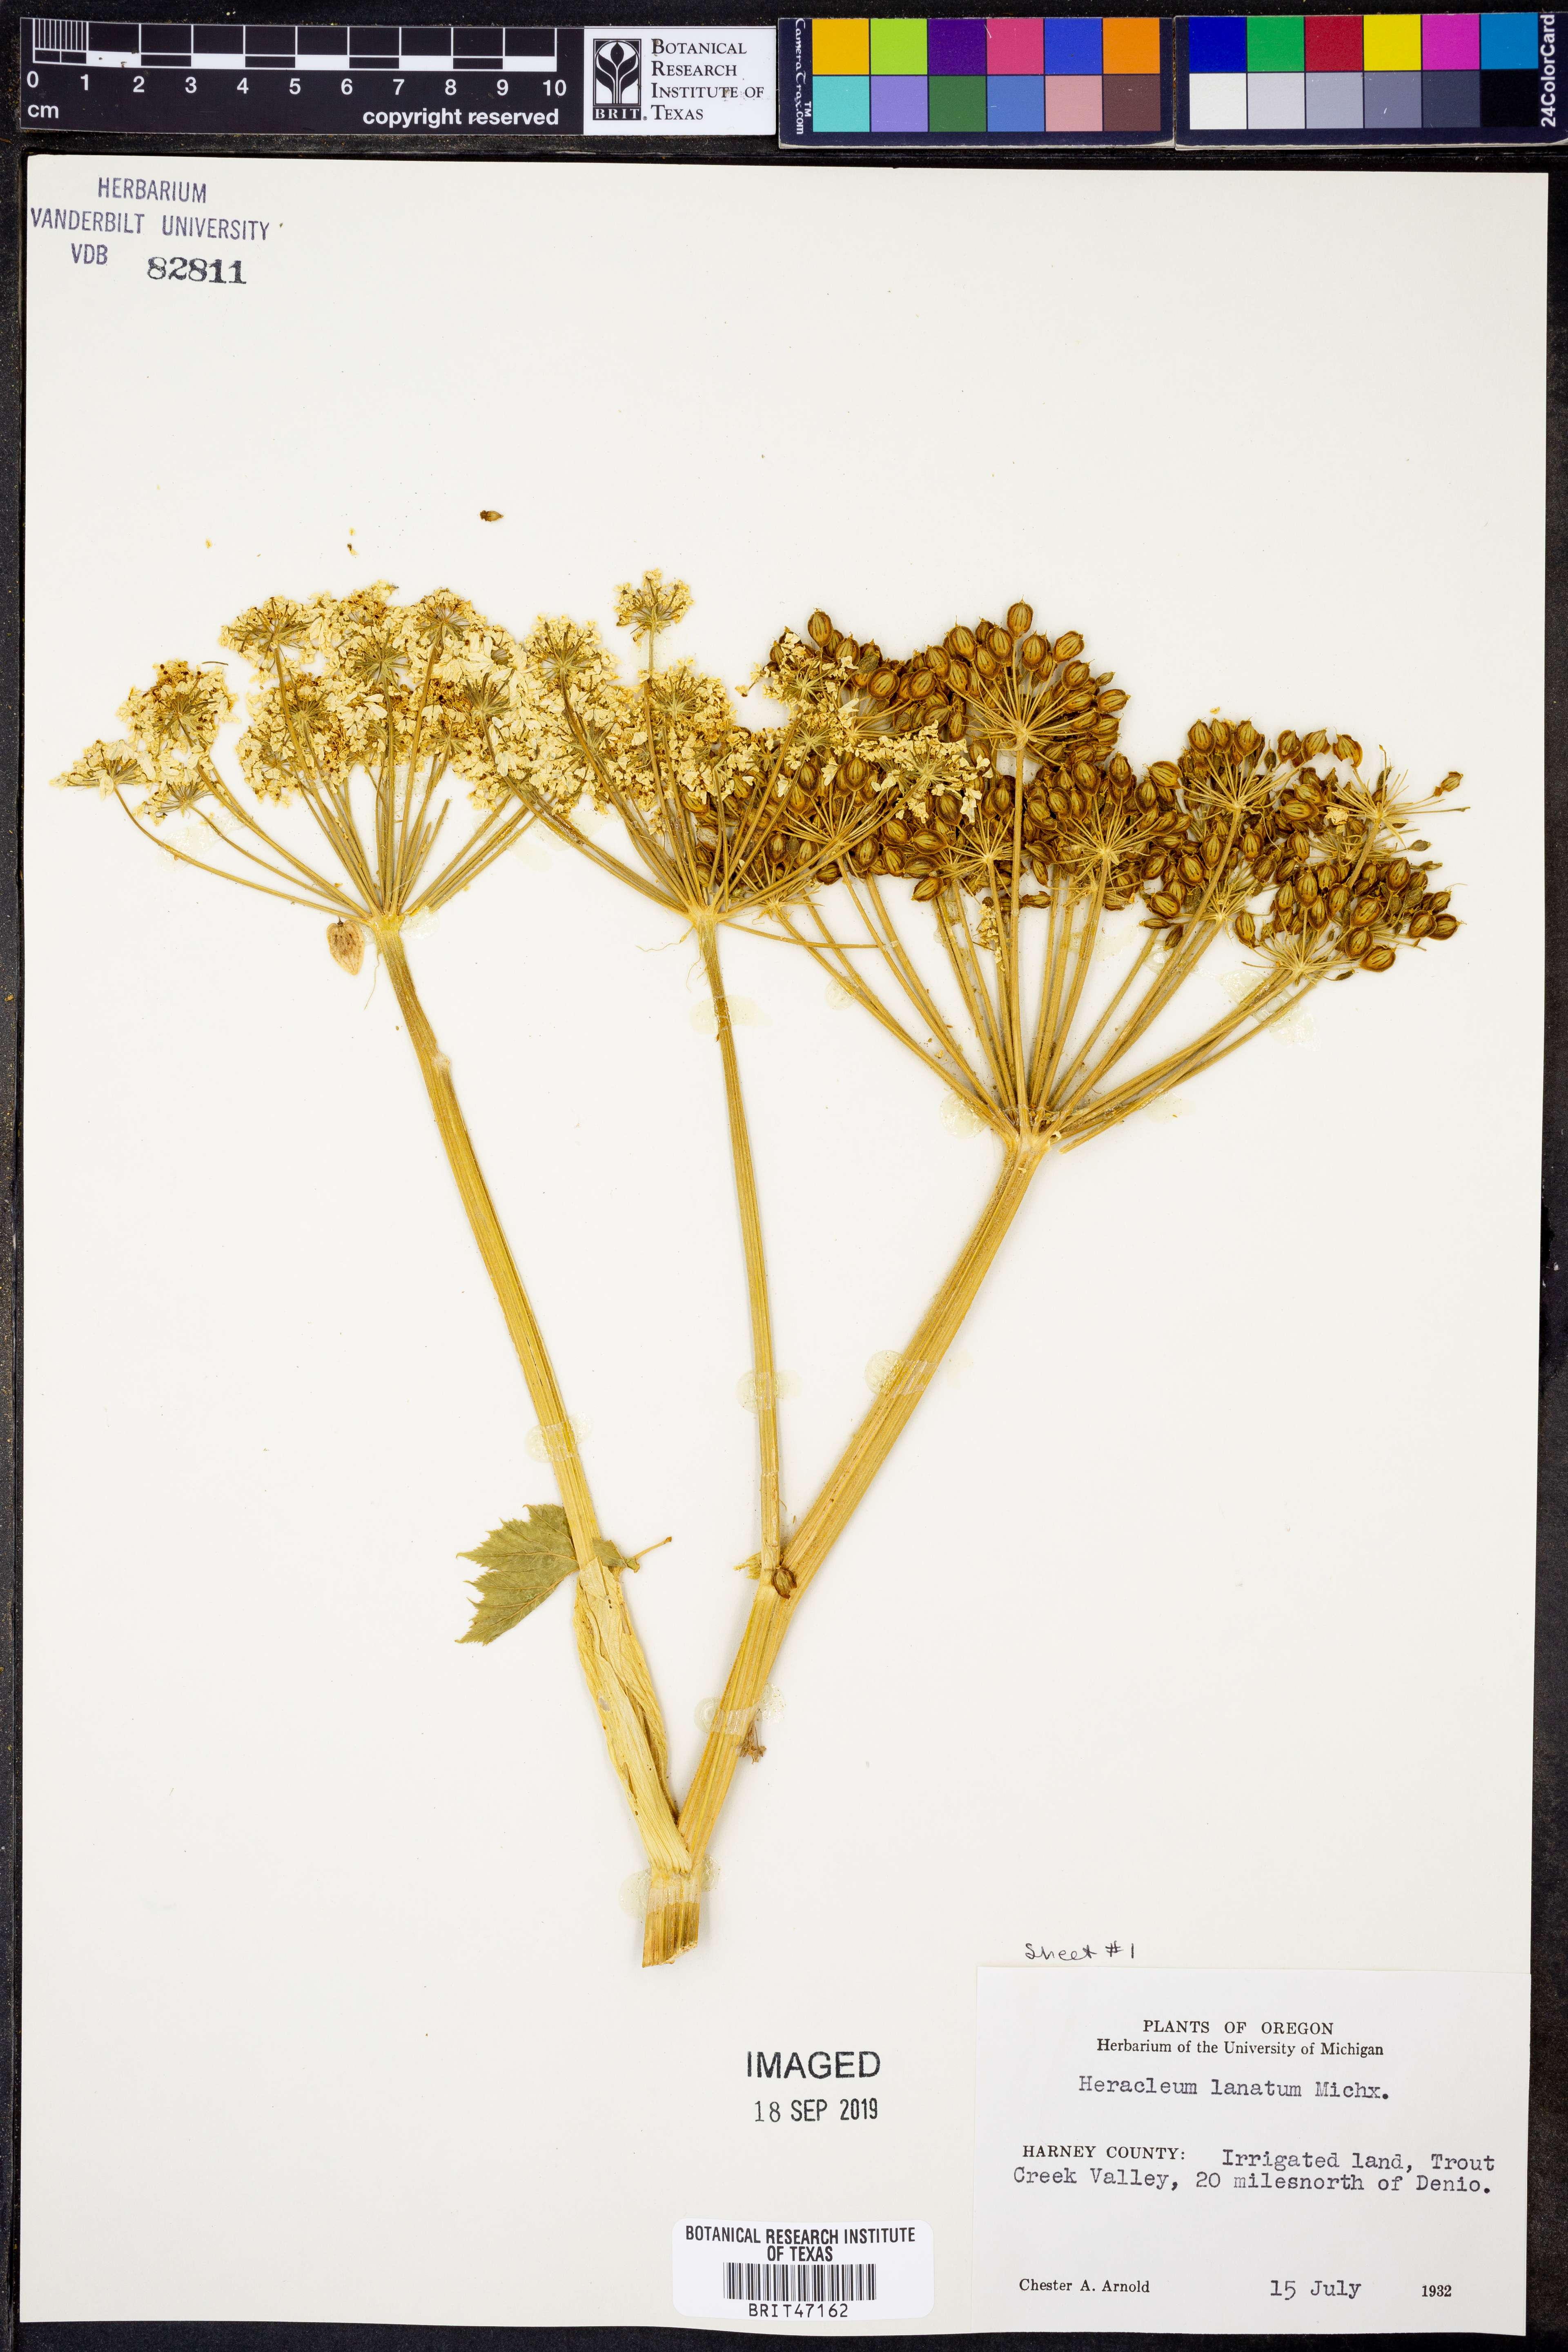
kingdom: Plantae
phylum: Tracheophyta
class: Magnoliopsida
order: Apiales
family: Apiaceae
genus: Heracleum
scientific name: Heracleum maximum
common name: American cow parsnip
